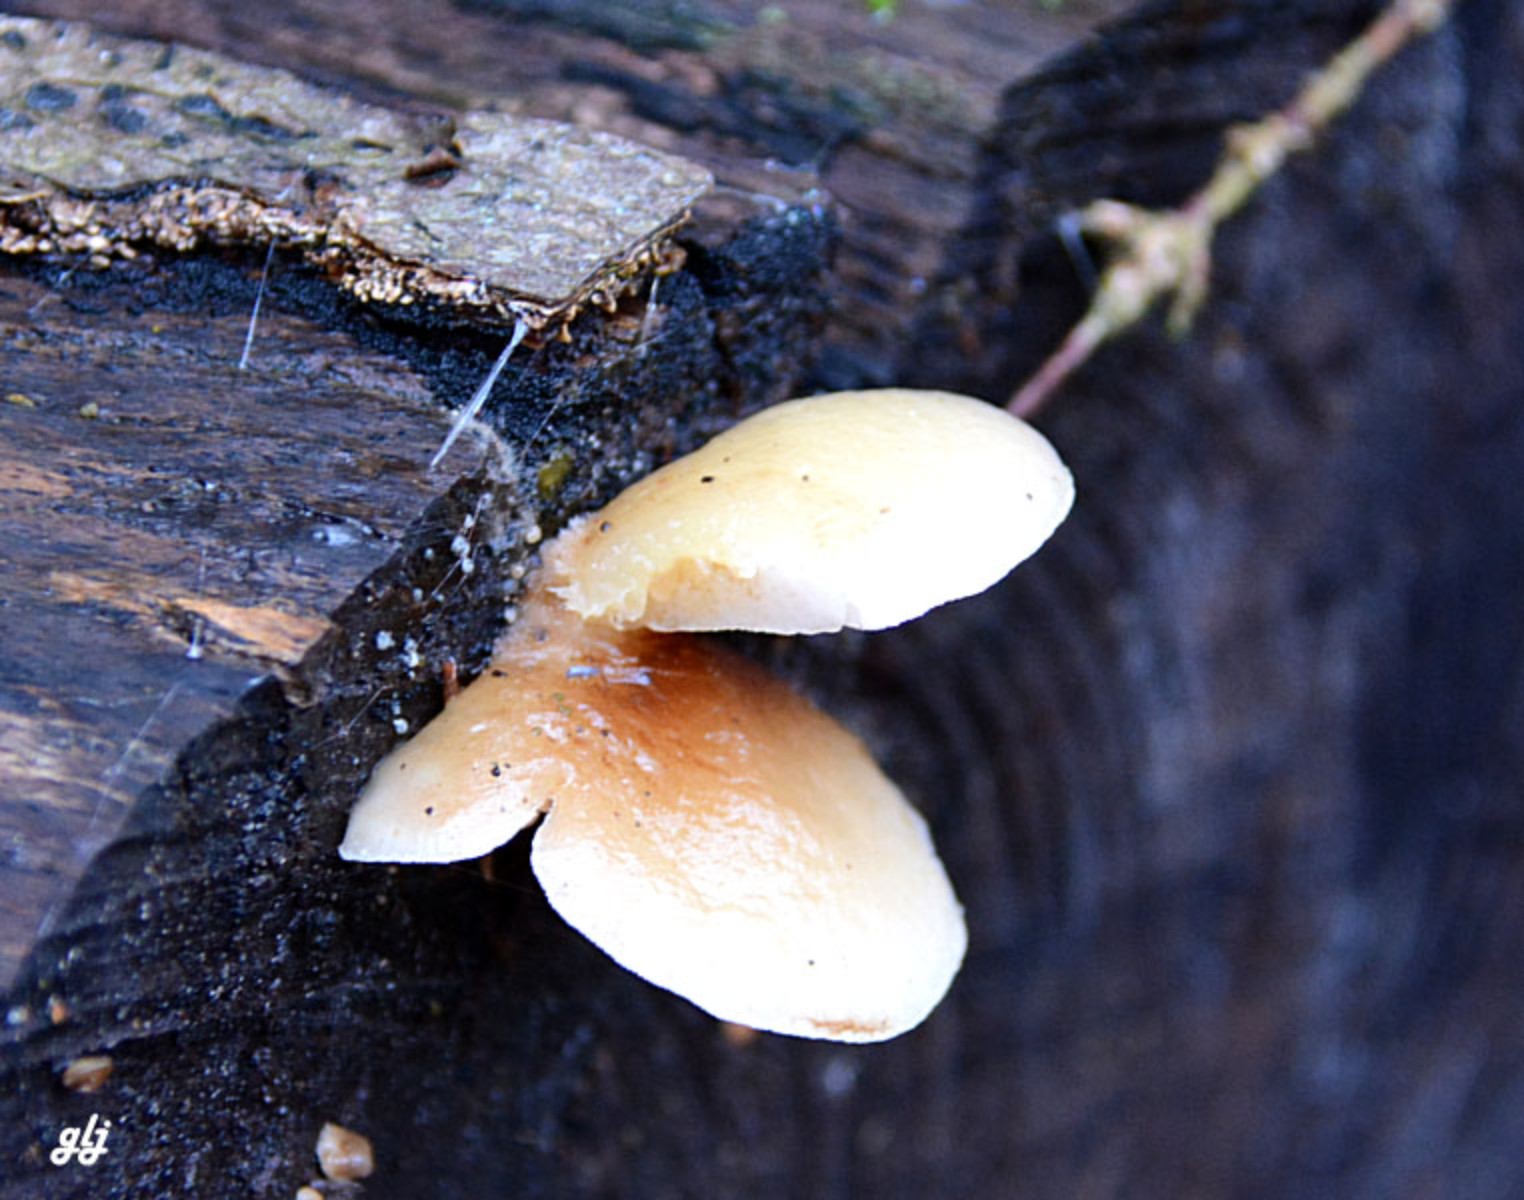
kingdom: Fungi
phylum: Basidiomycota
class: Agaricomycetes
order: Agaricales
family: Crepidotaceae
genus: Crepidotus
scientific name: Crepidotus mollis
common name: blød muslingesvamp
